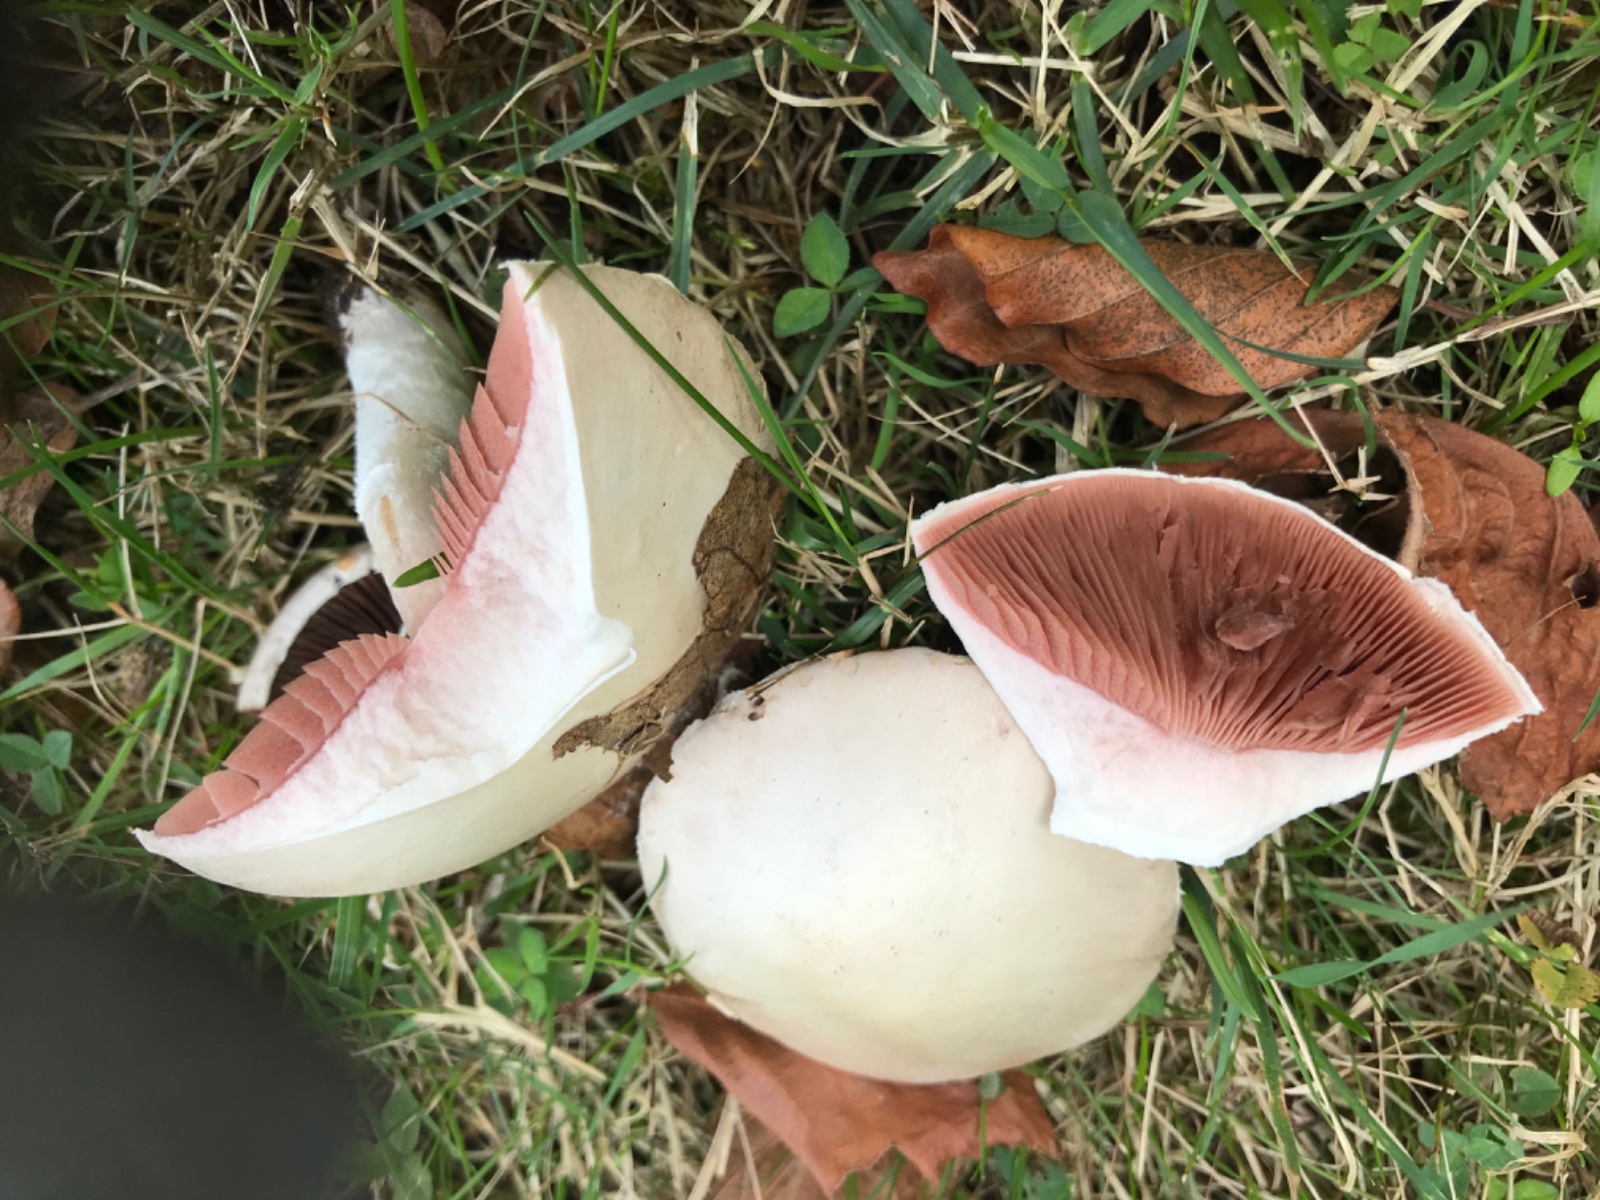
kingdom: Fungi
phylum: Basidiomycota
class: Agaricomycetes
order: Agaricales
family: Agaricaceae
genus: Agaricus
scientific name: Agaricus campestris
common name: mark-champignon
